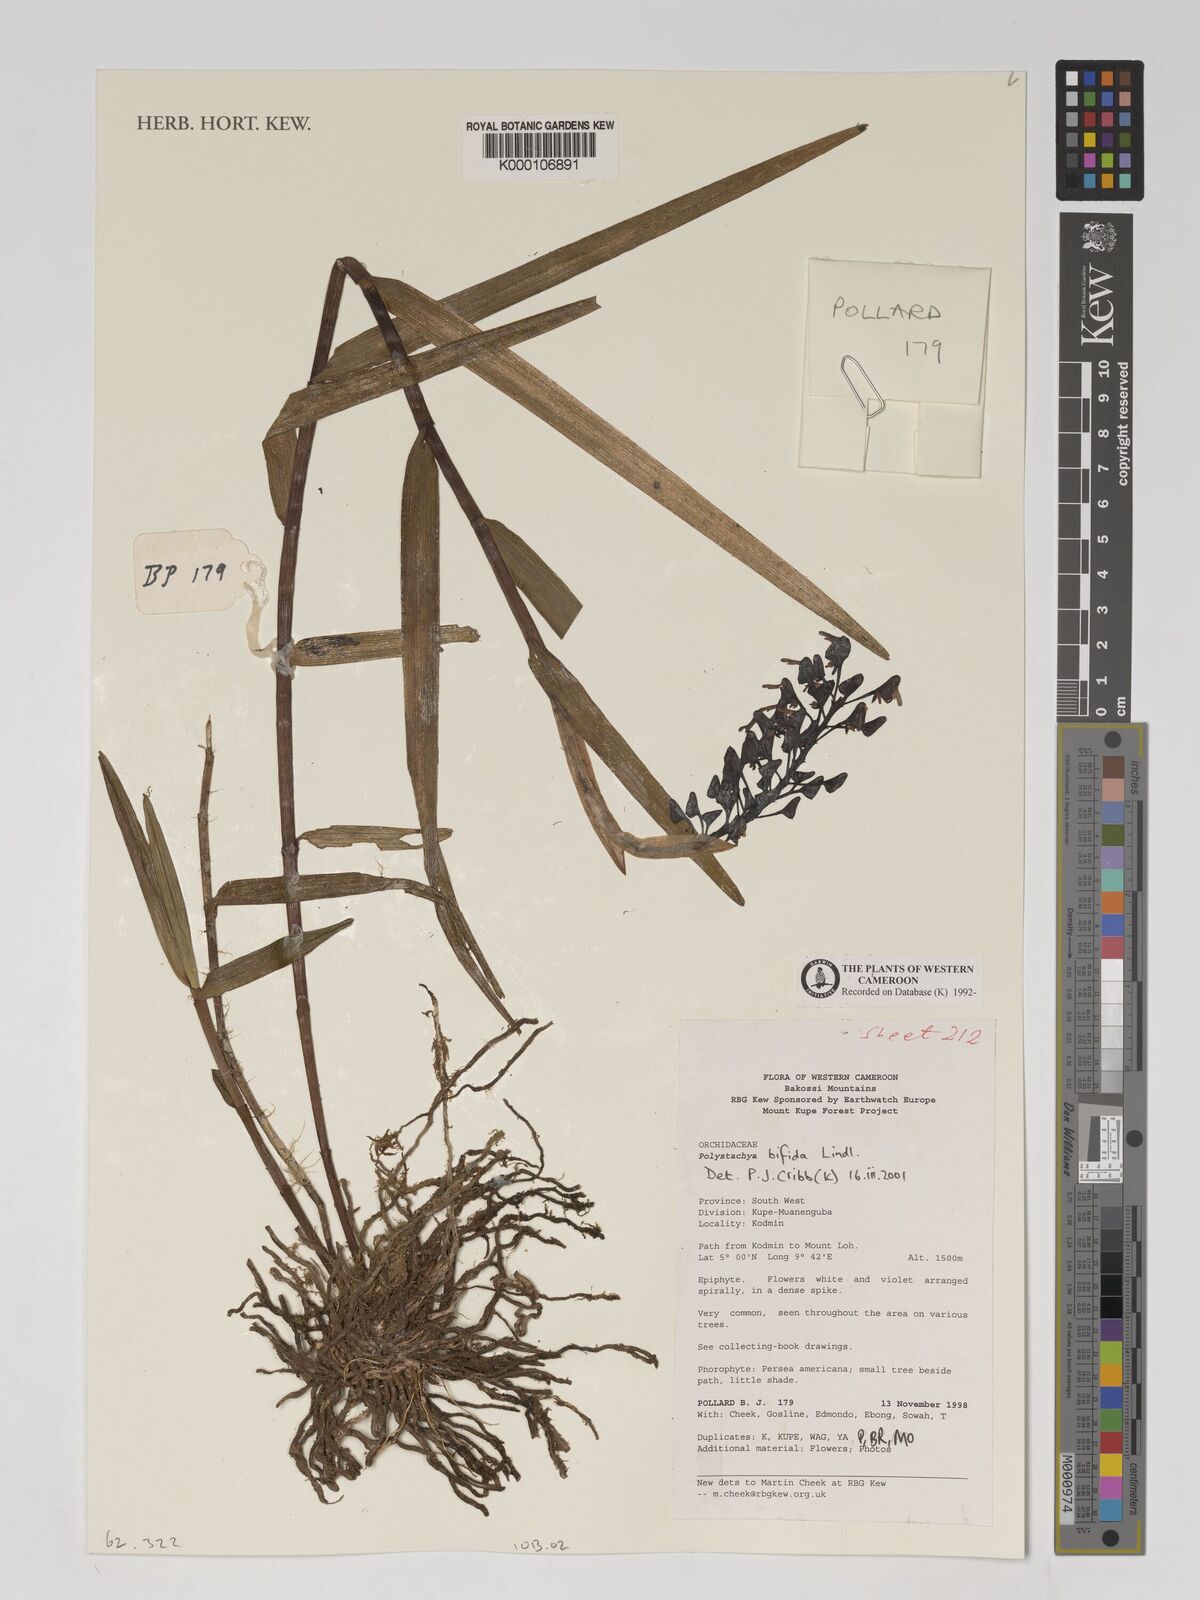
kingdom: Plantae
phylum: Tracheophyta
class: Liliopsida
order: Asparagales
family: Orchidaceae
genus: Polystachya
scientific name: Polystachya bifida
